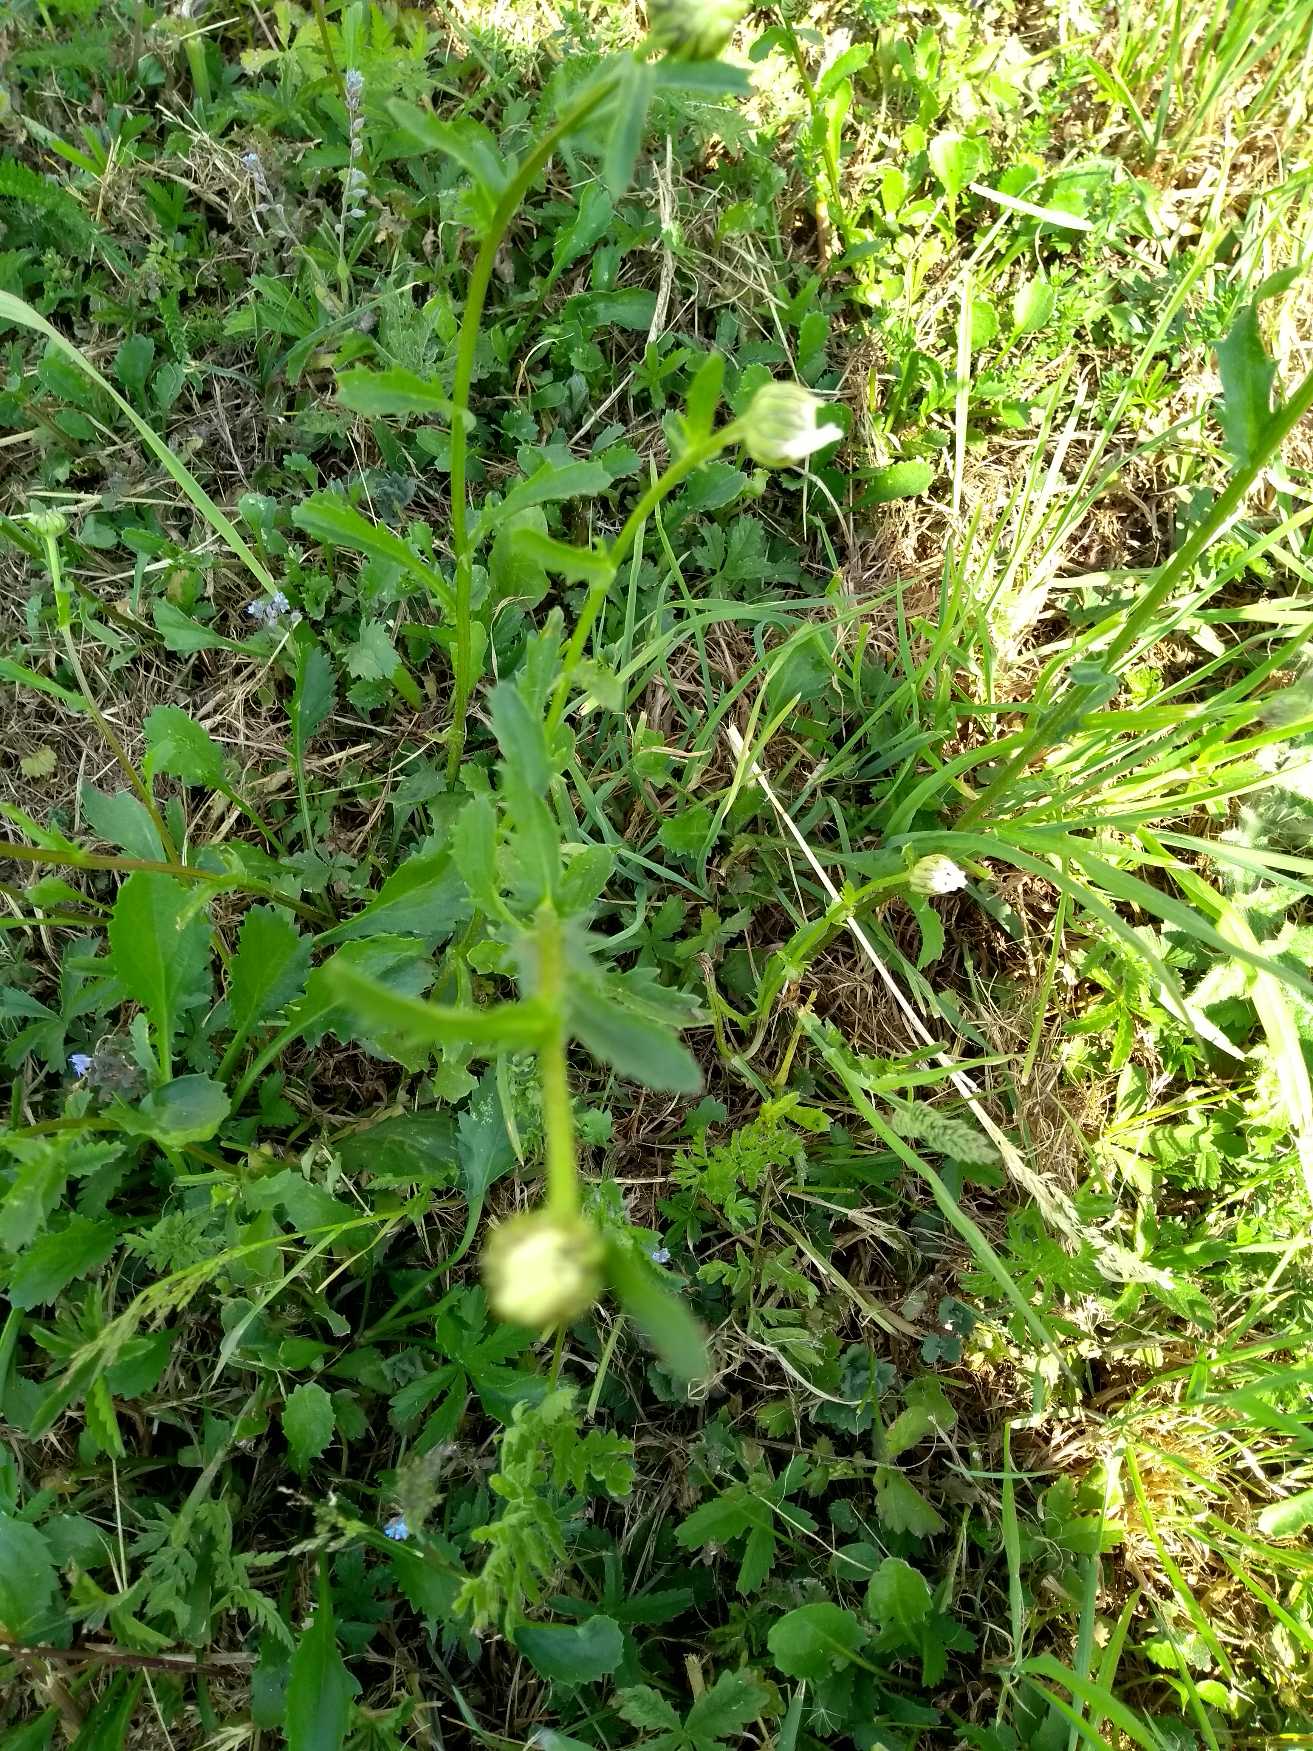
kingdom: Plantae
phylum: Tracheophyta
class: Magnoliopsida
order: Asterales
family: Asteraceae
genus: Leucanthemum
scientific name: Leucanthemum vulgare
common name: Hvid okseøje
